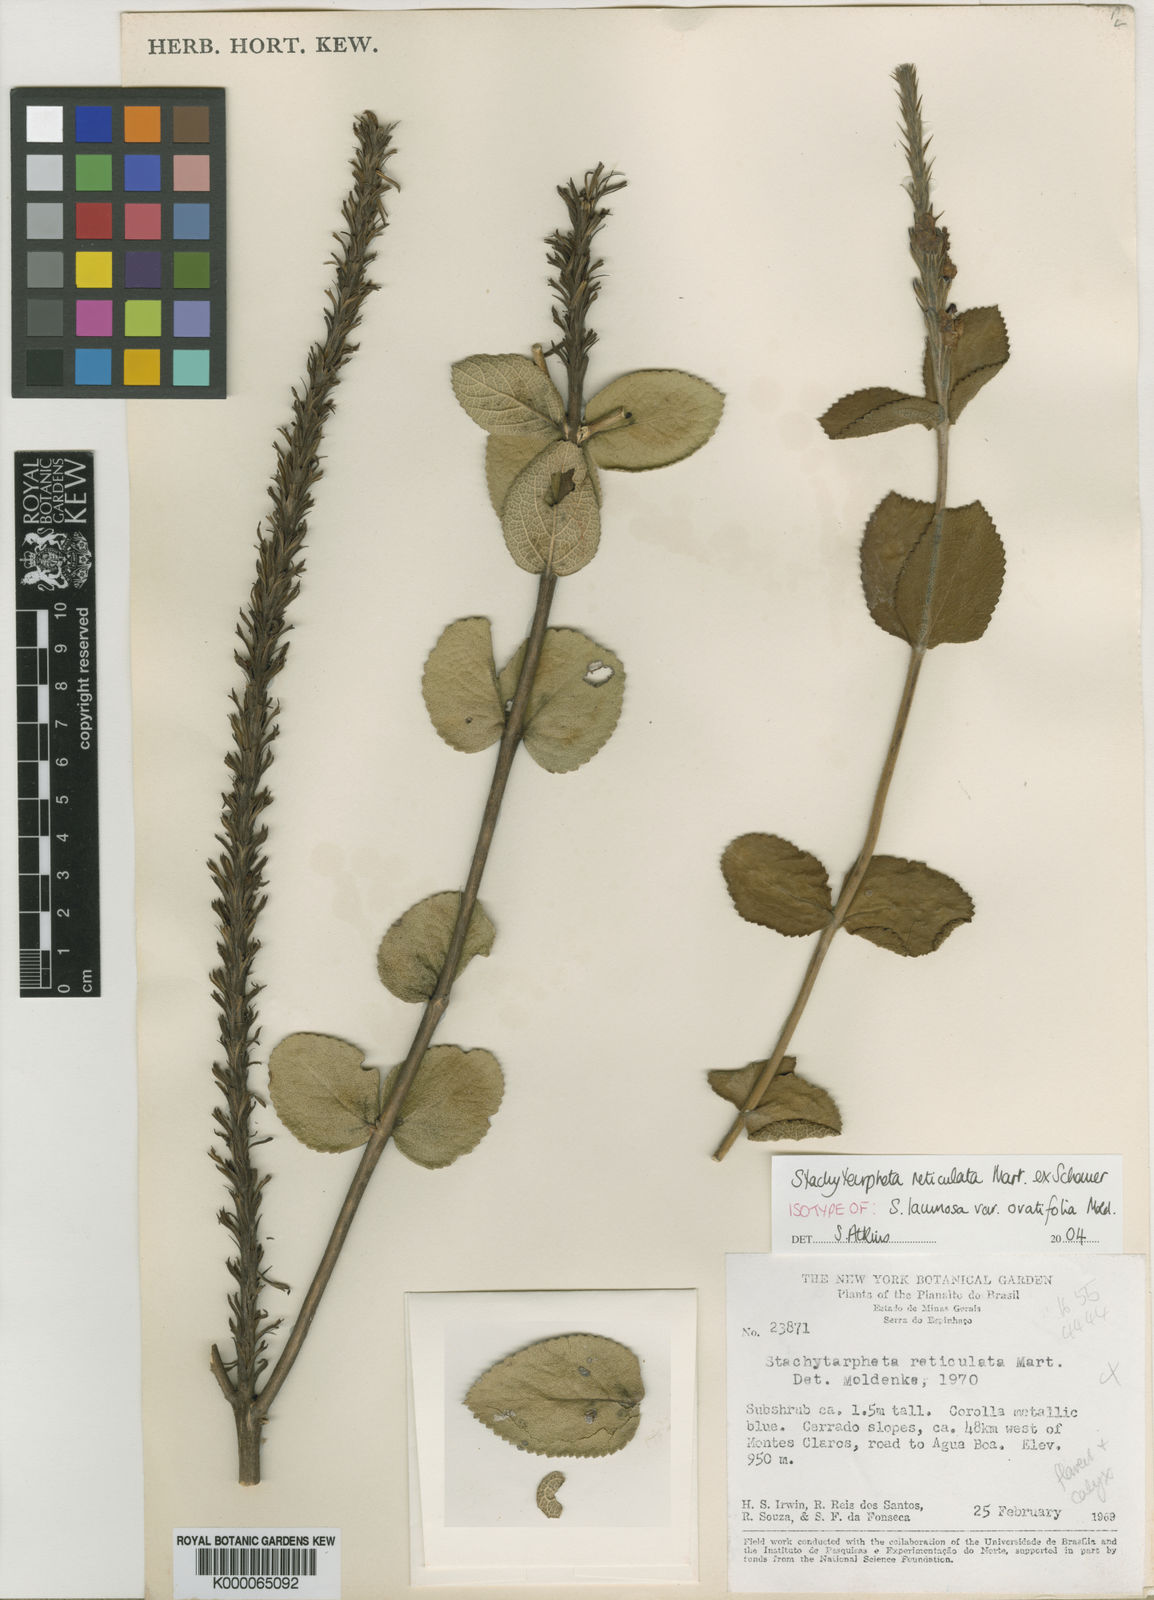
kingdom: Plantae
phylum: Tracheophyta
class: Magnoliopsida
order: Lamiales
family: Verbenaceae
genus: Stachytarpheta
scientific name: Stachytarpheta reticulata
